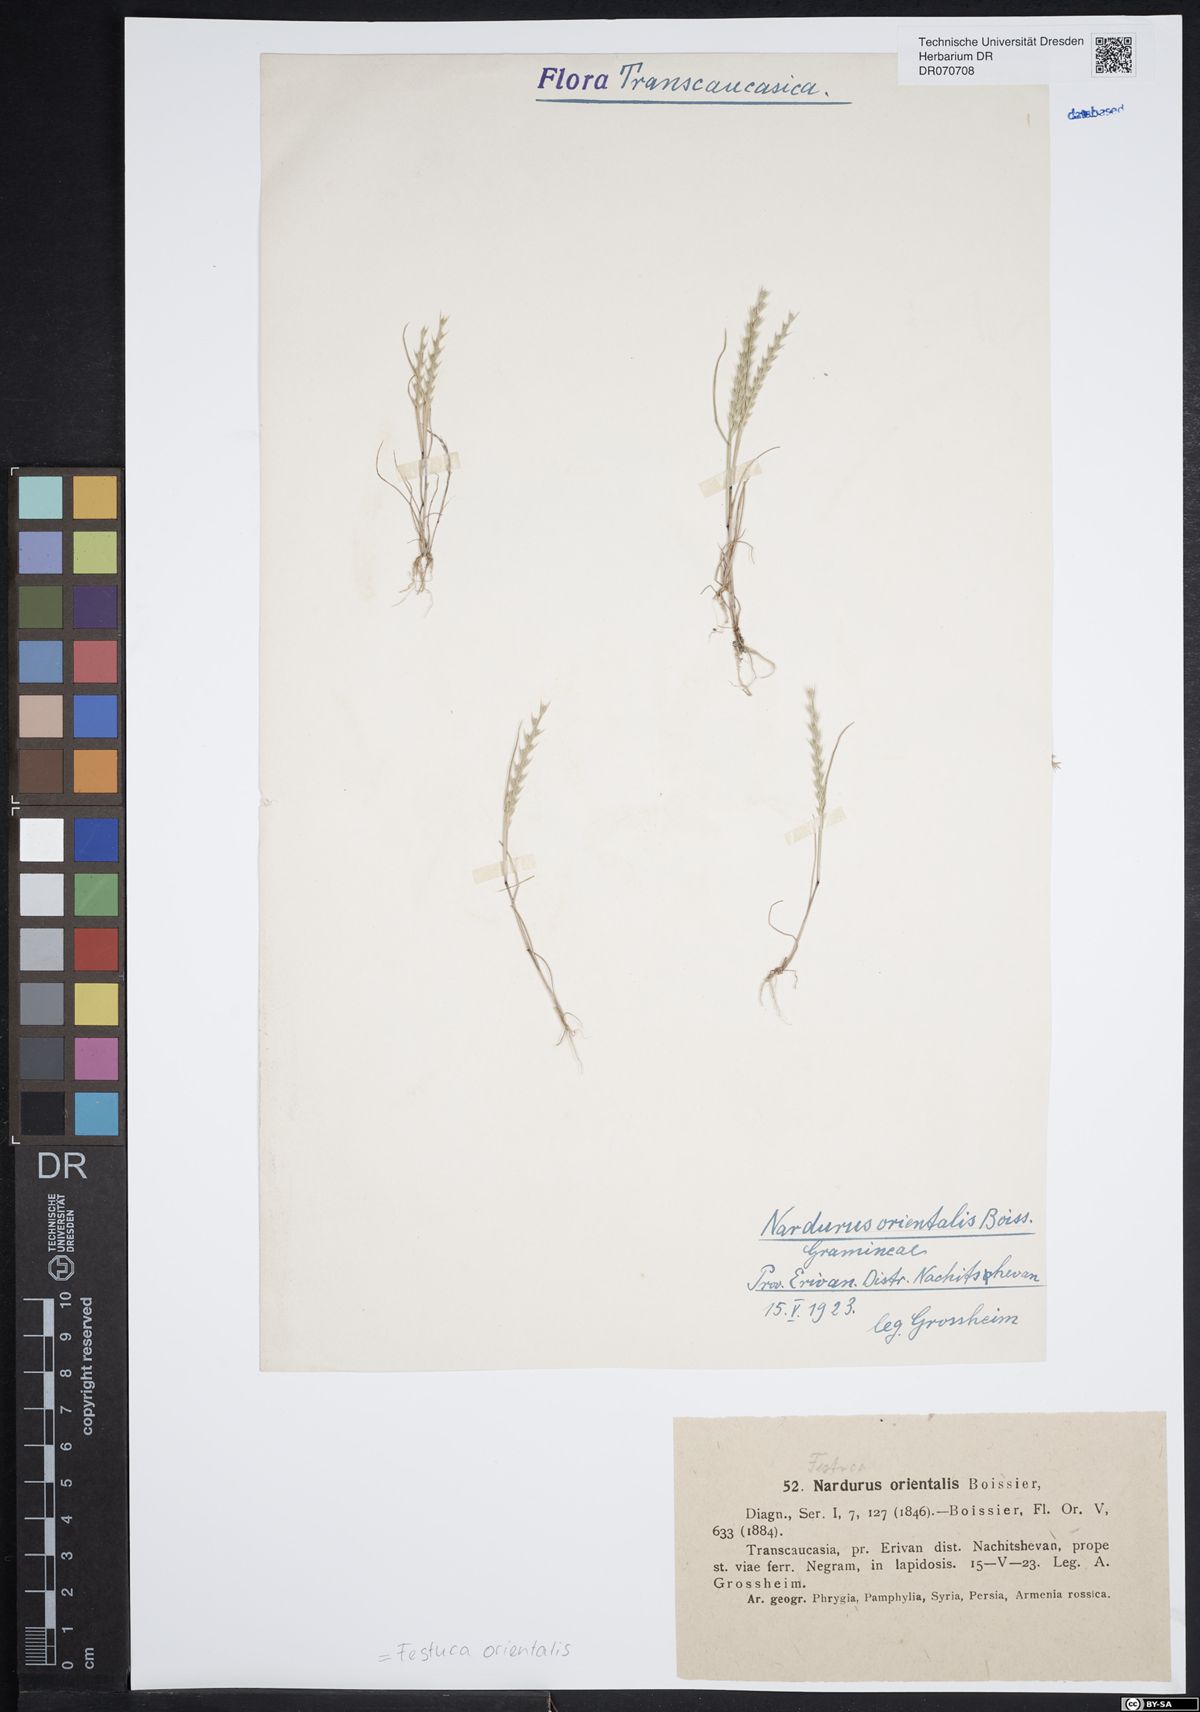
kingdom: Plantae
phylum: Tracheophyta
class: Liliopsida
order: Poales
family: Poaceae
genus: Festuca
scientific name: Festuca orientalis
